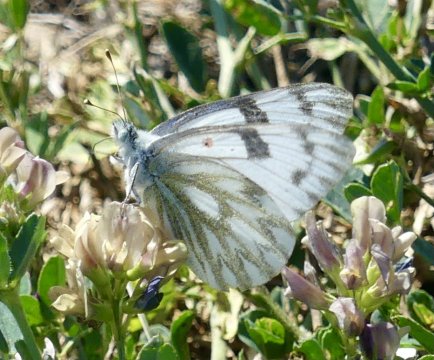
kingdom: Animalia
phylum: Arthropoda
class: Insecta
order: Lepidoptera
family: Pieridae
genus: Pontia
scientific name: Pontia occidentalis
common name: Western White
